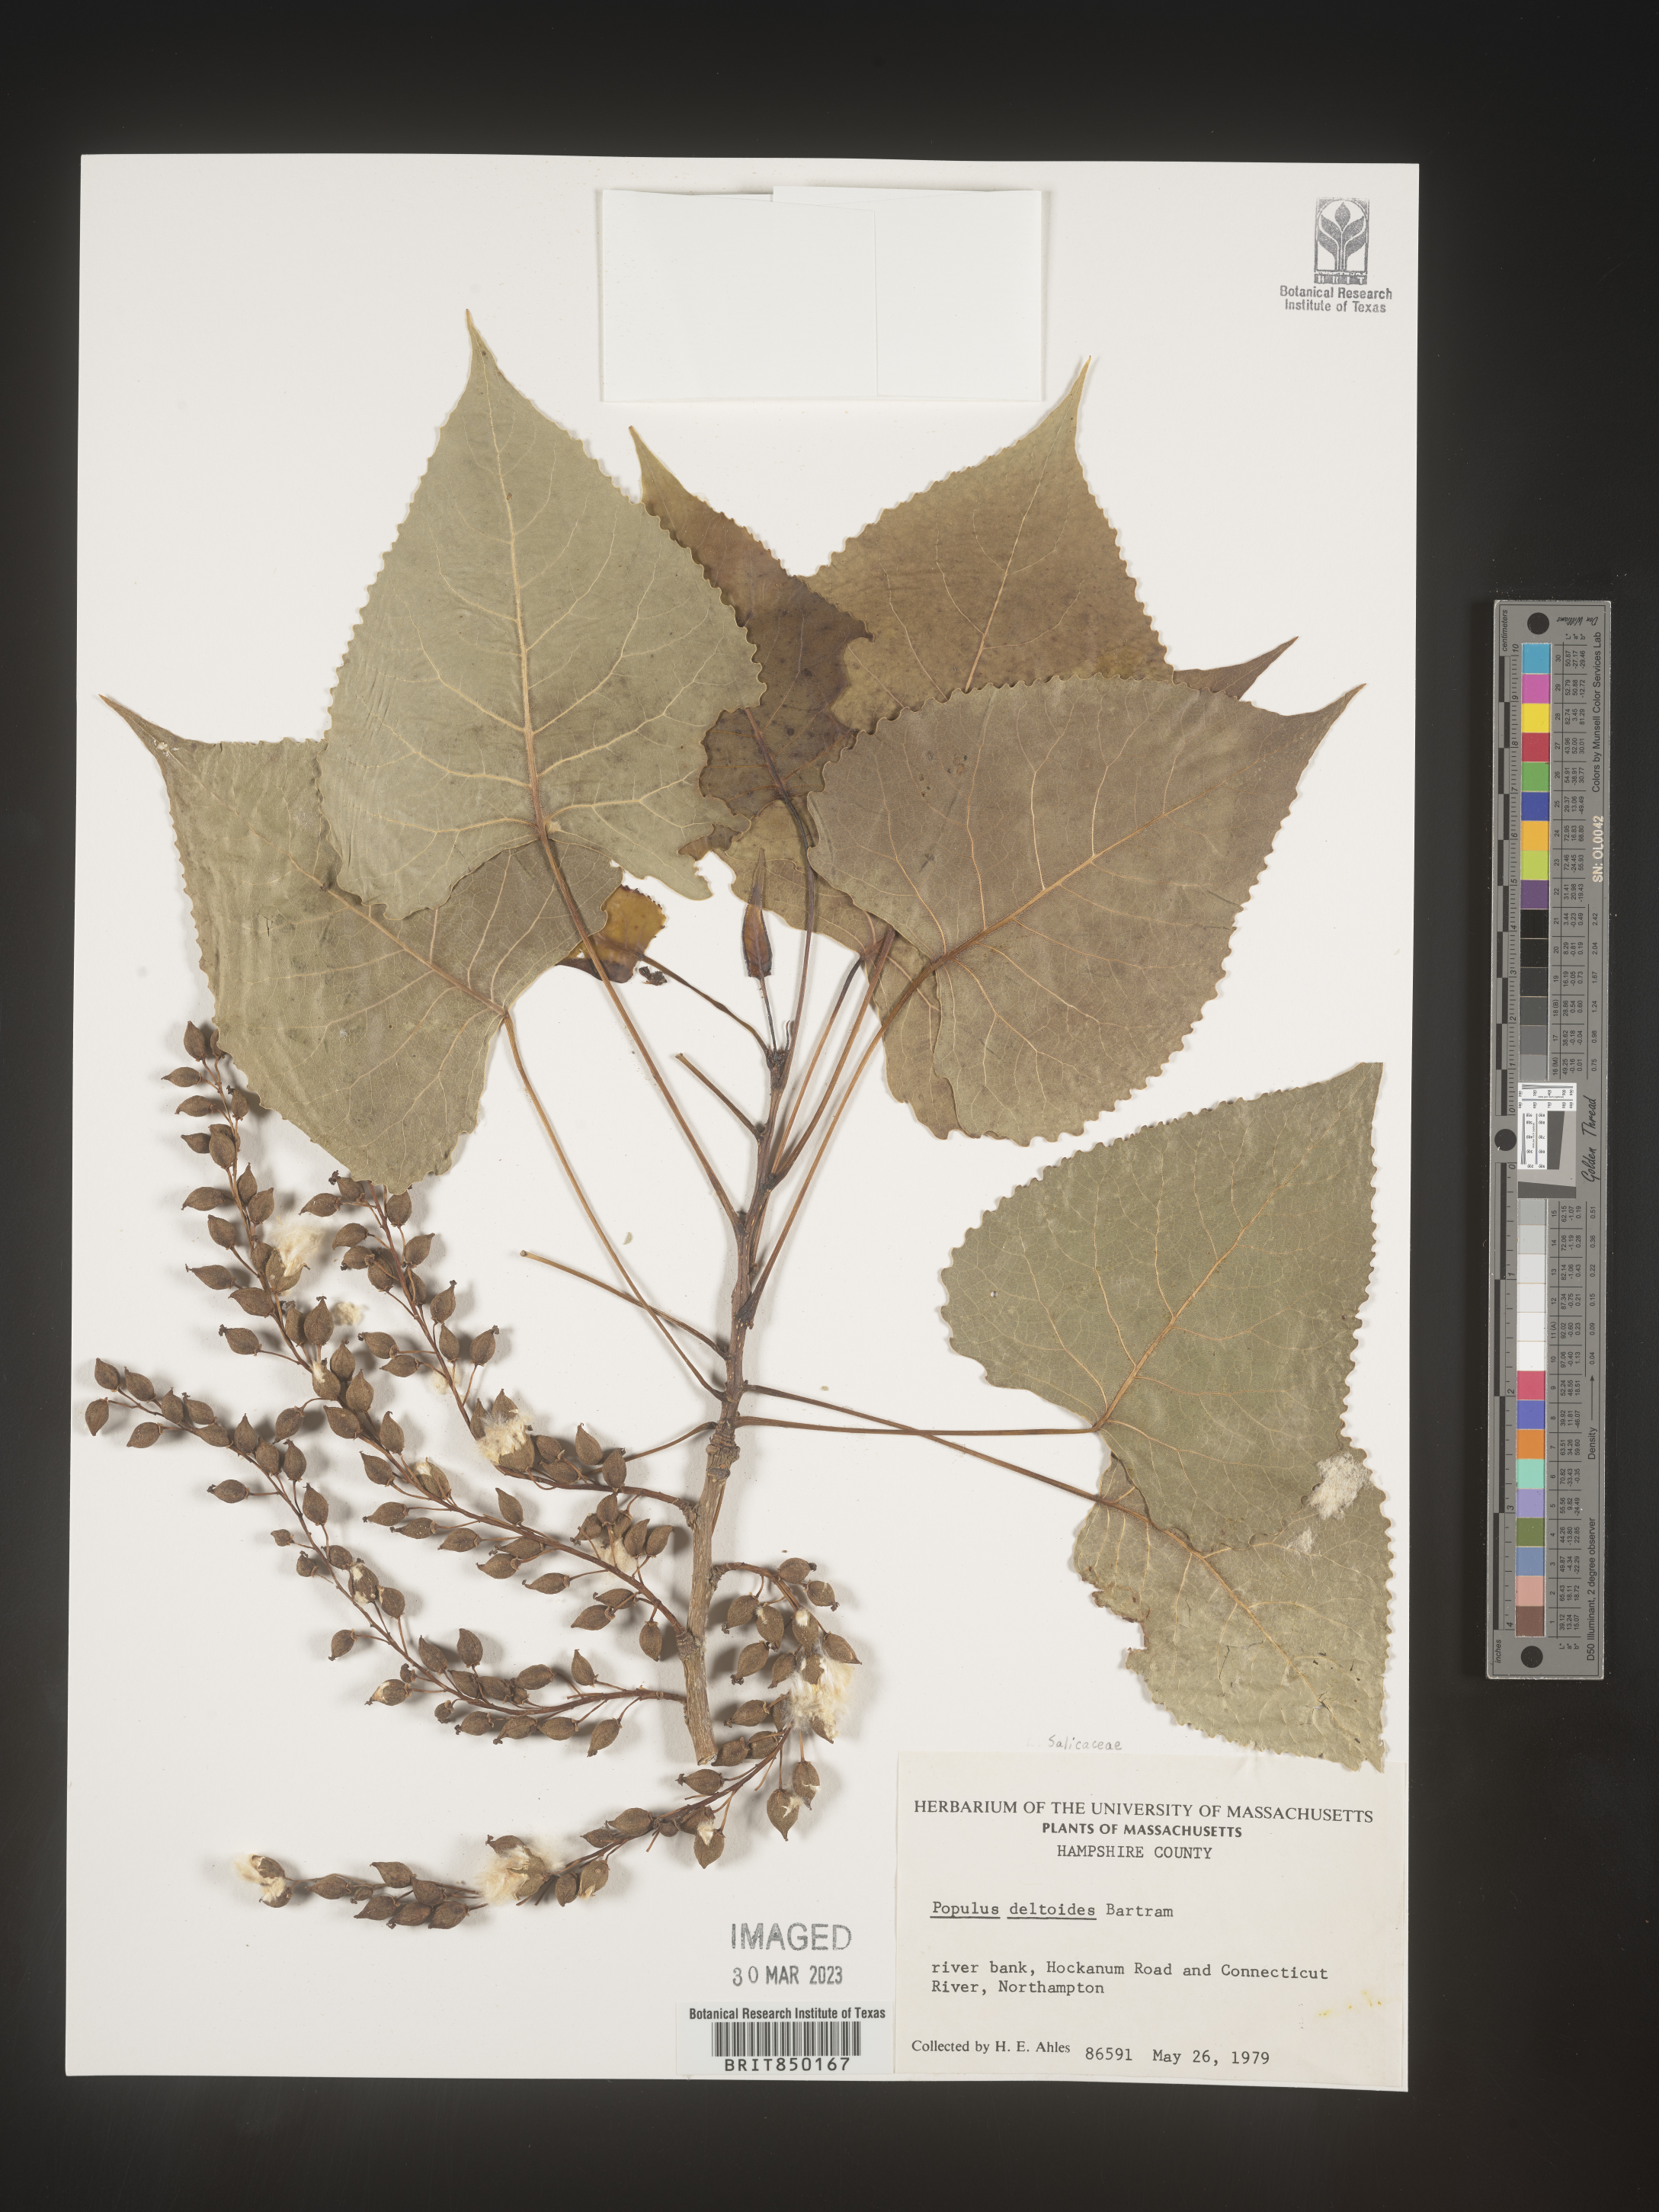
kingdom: Plantae
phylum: Tracheophyta
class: Magnoliopsida
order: Malpighiales
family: Salicaceae
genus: Populus
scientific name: Populus deltoides
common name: Eastern cottonwood
